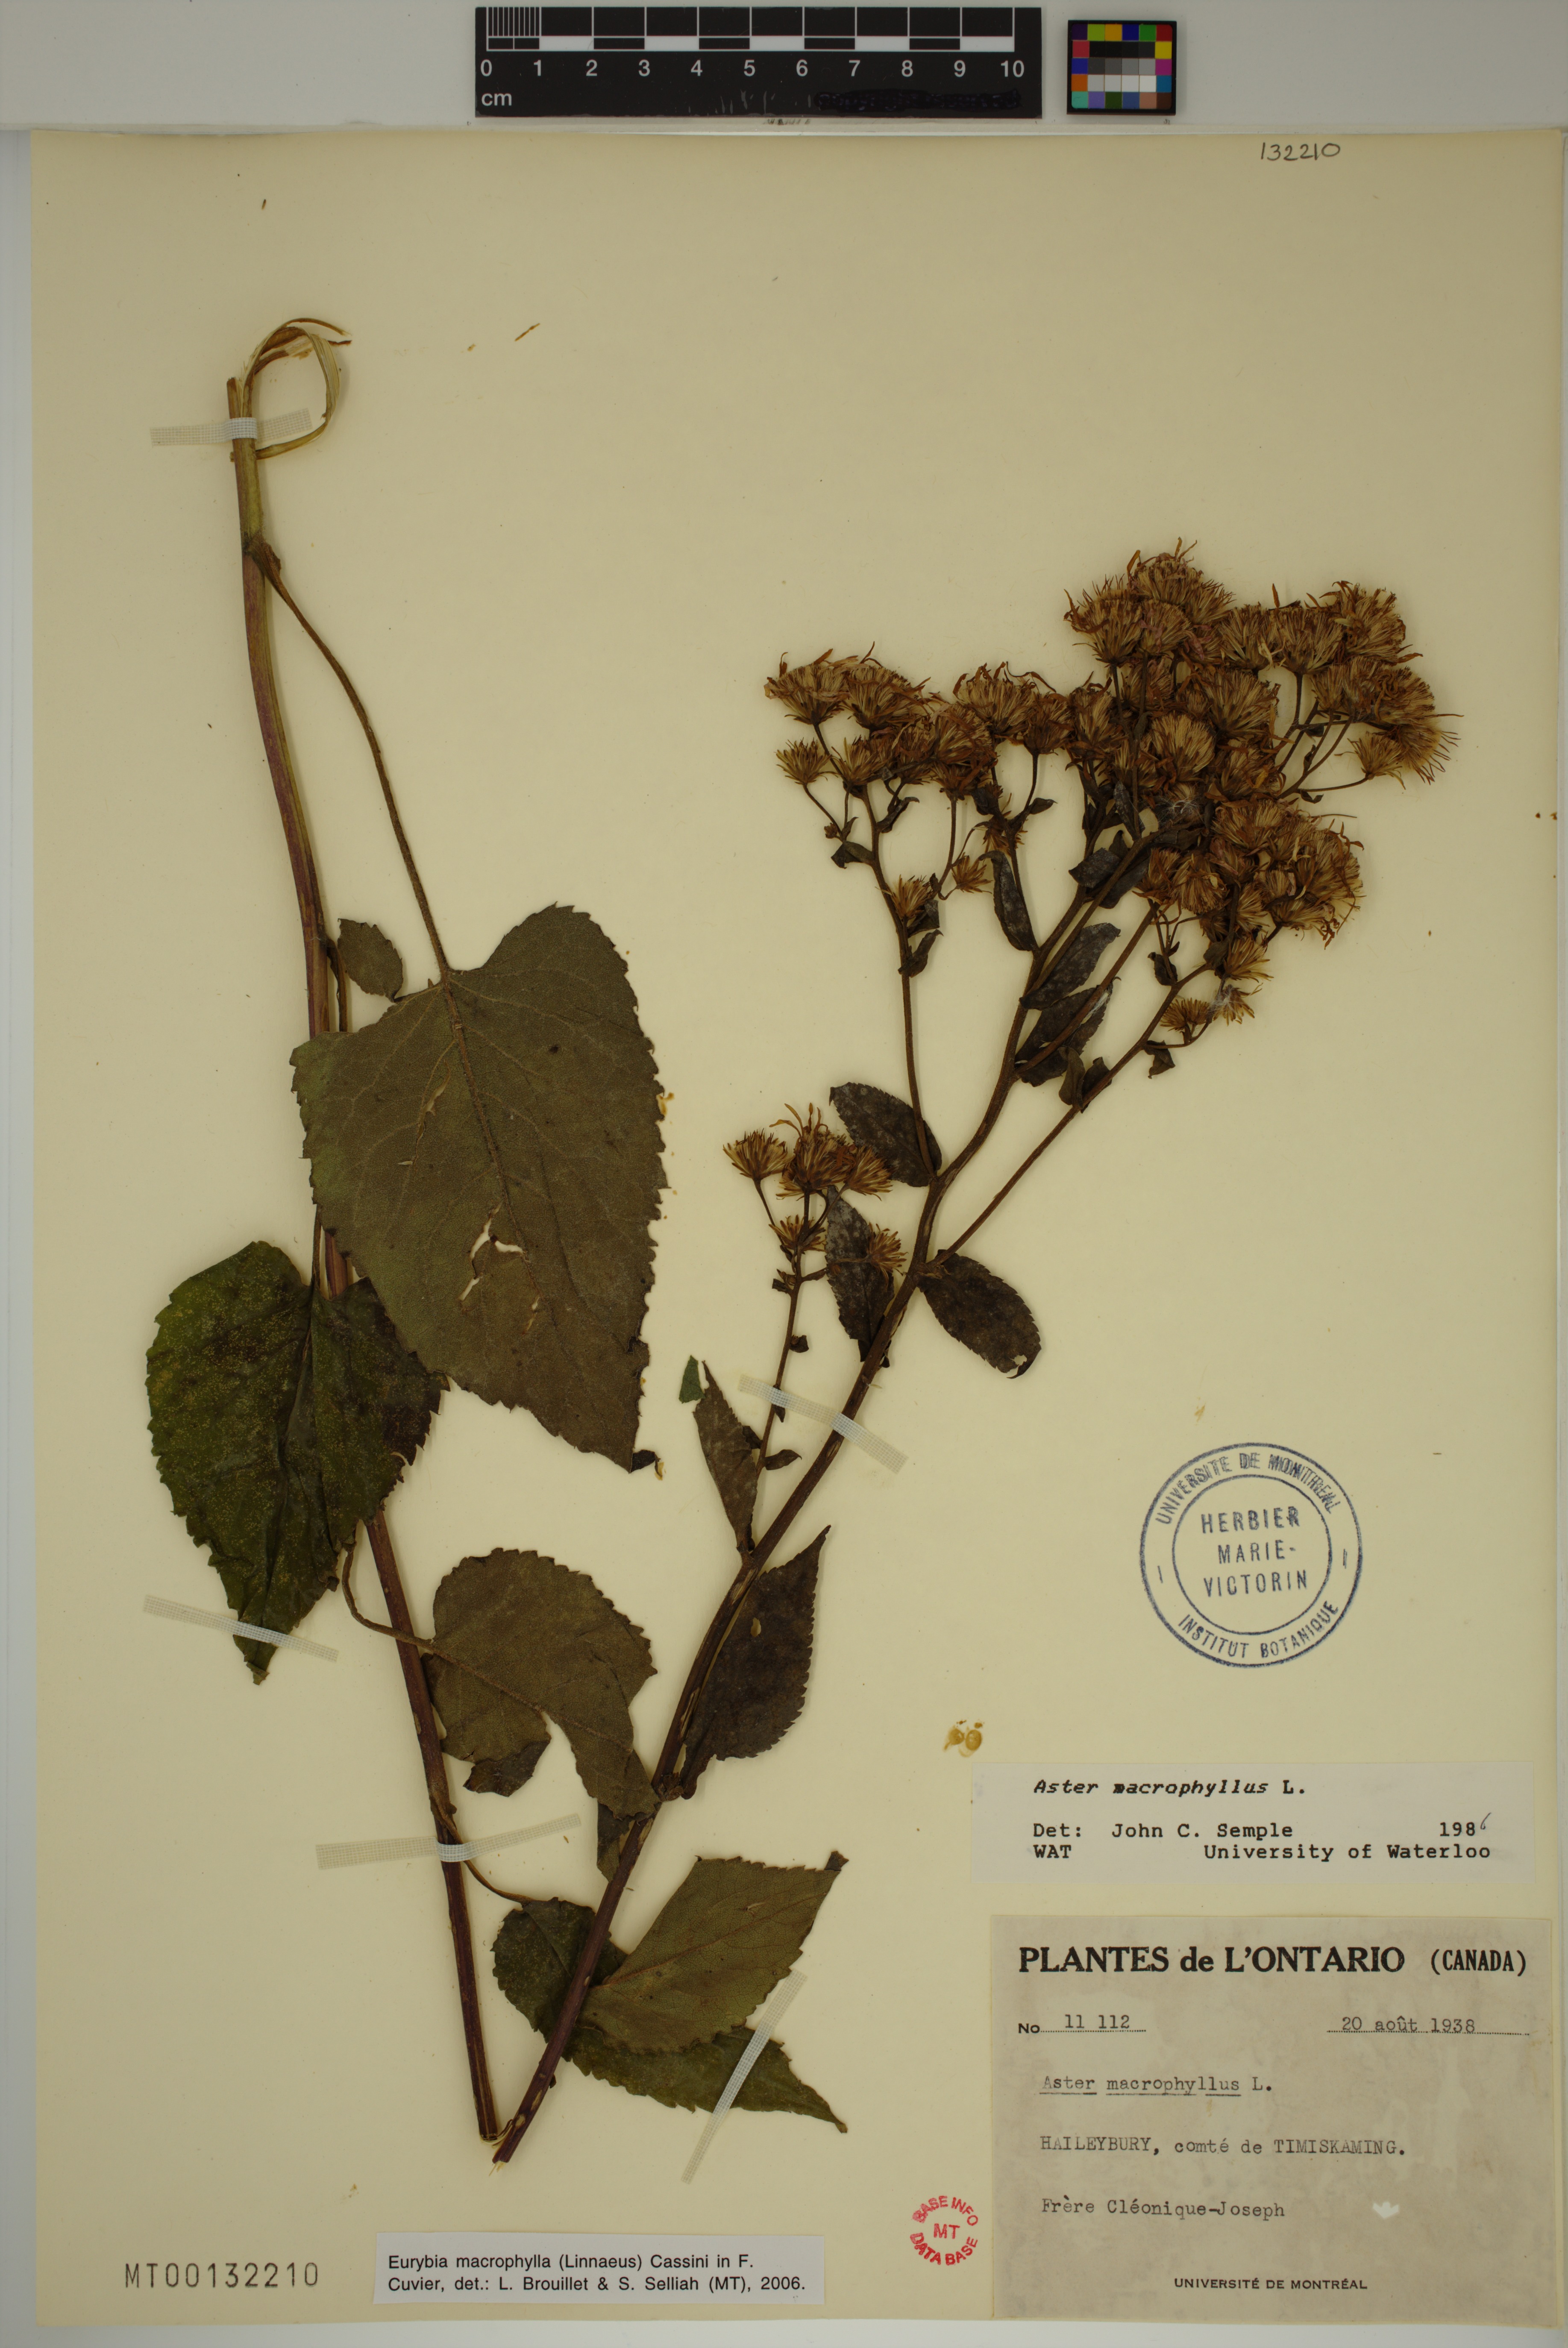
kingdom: Plantae
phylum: Tracheophyta
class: Magnoliopsida
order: Asterales
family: Asteraceae
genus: Eurybia
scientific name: Eurybia macrophylla
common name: Big-leaved aster
